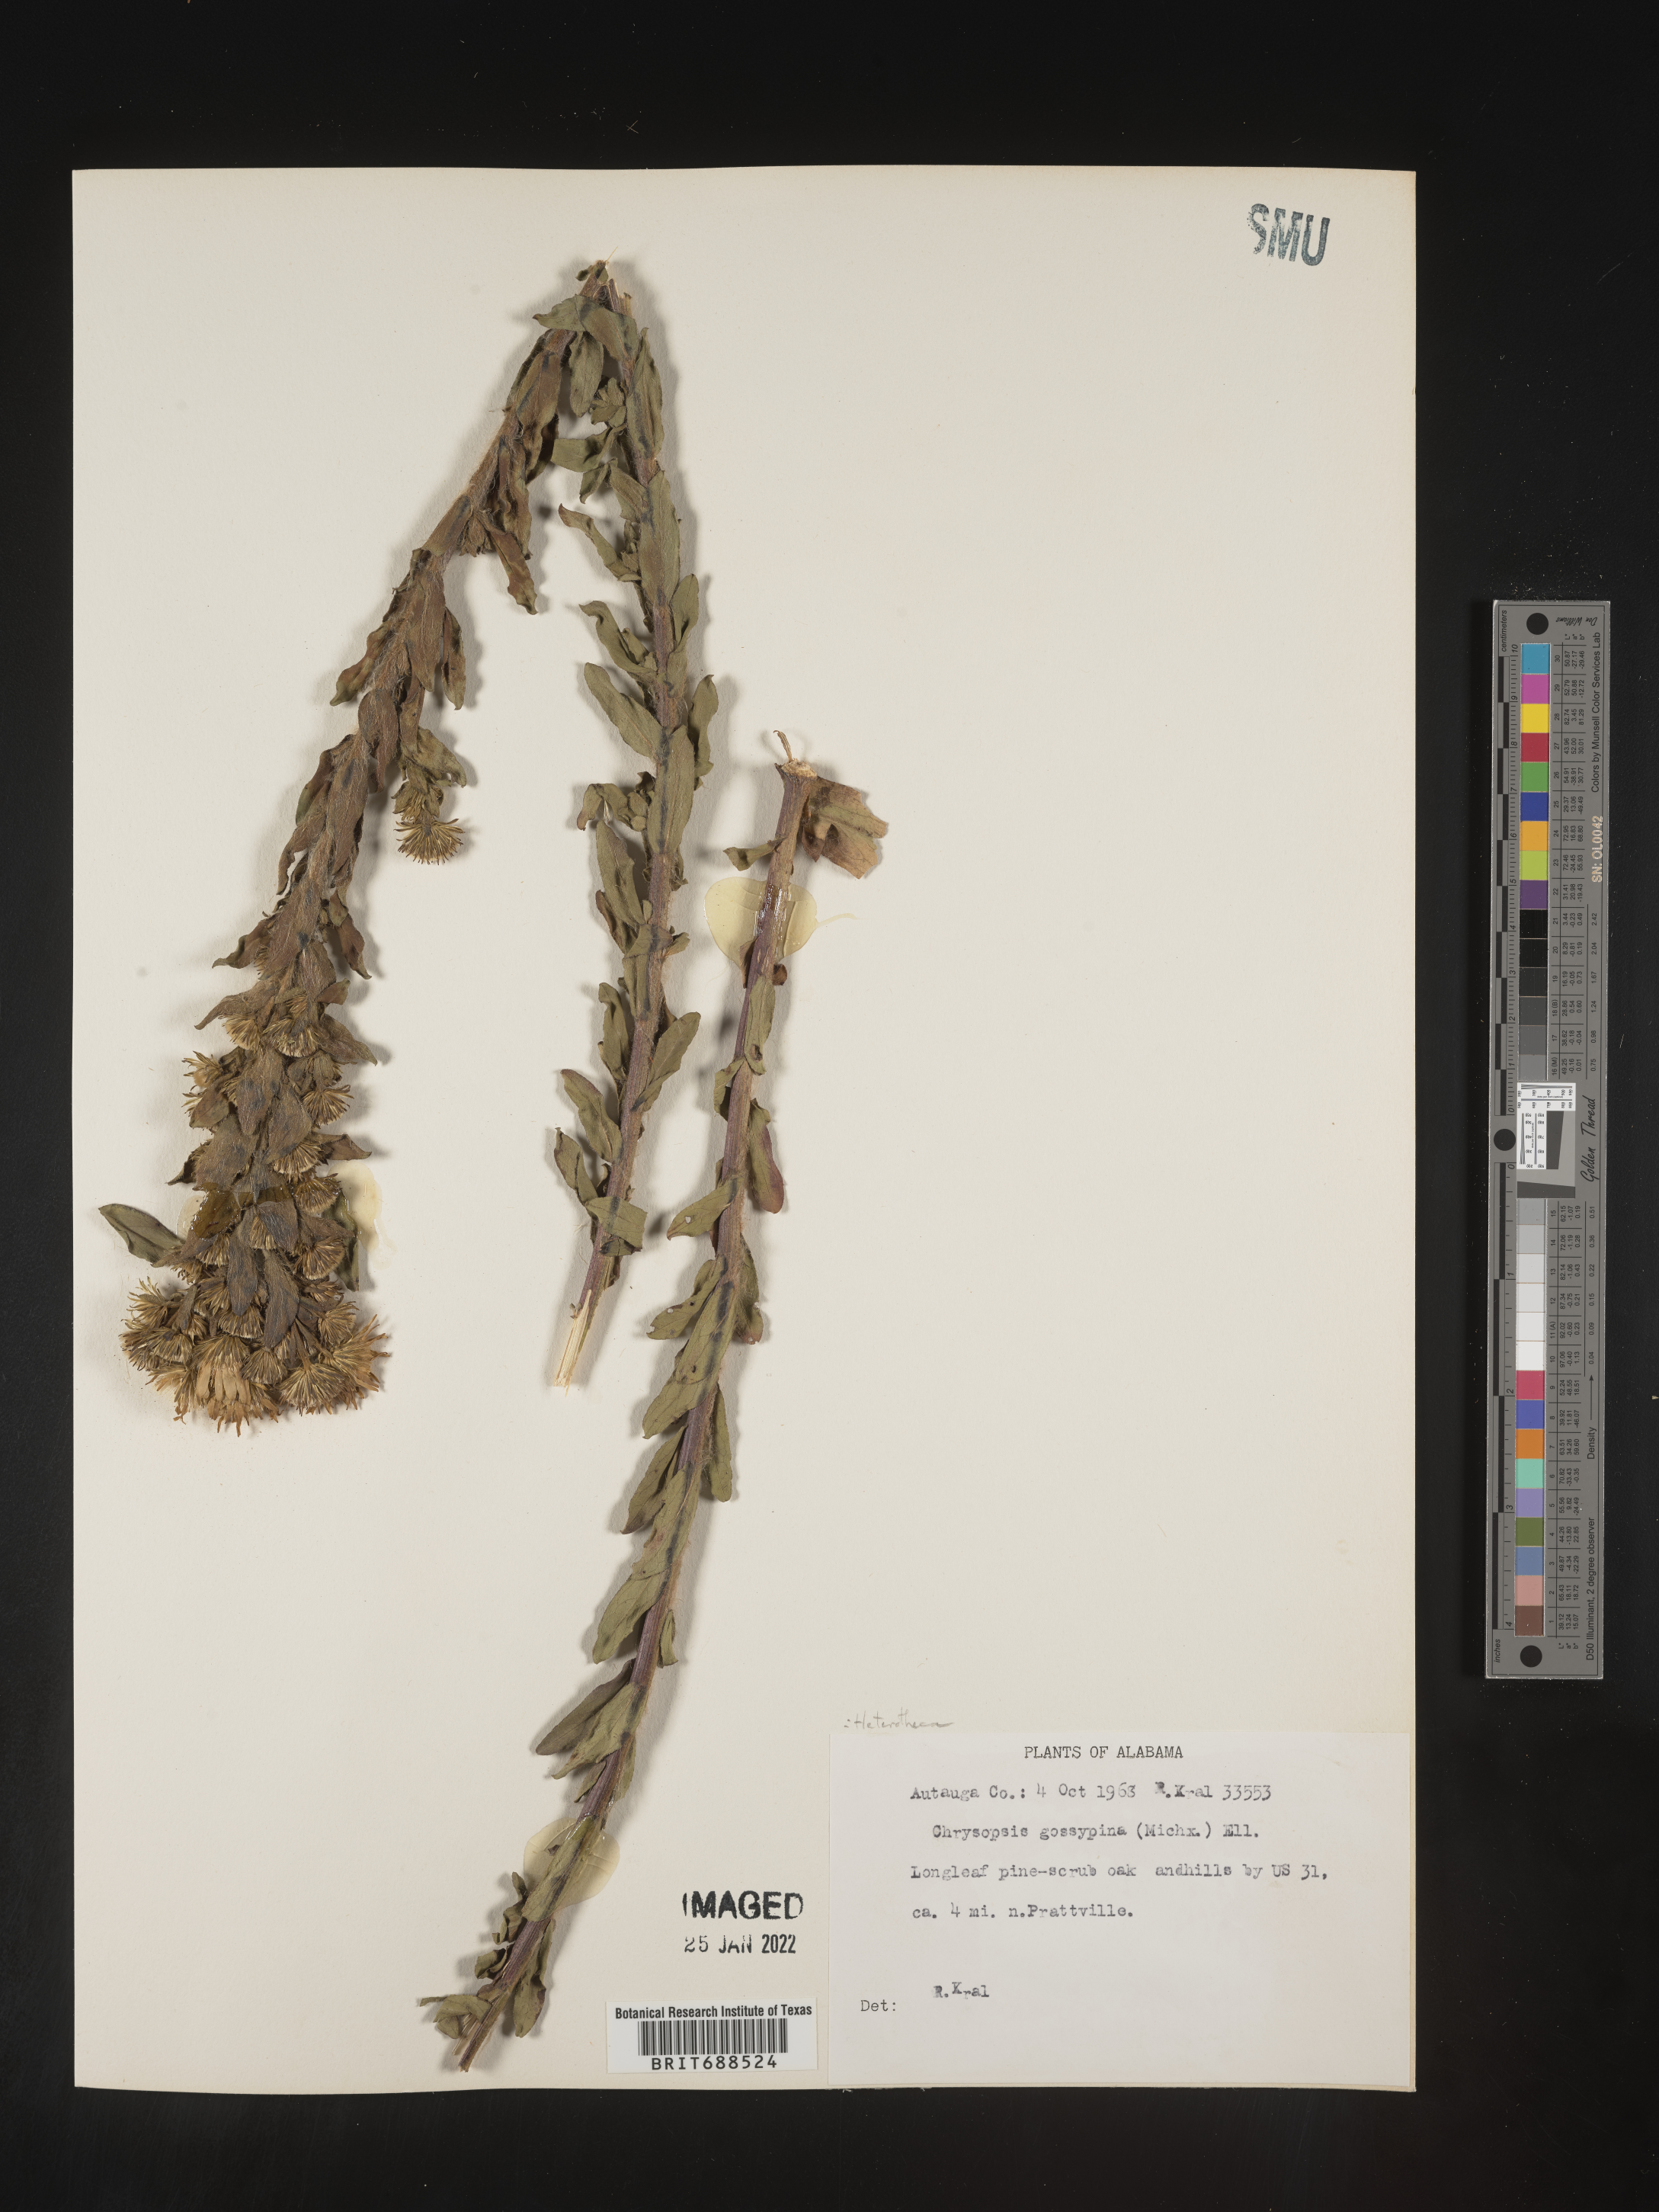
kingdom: Plantae
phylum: Tracheophyta
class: Magnoliopsida
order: Asterales
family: Asteraceae
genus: Chrysopsis
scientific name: Chrysopsis gossypina
